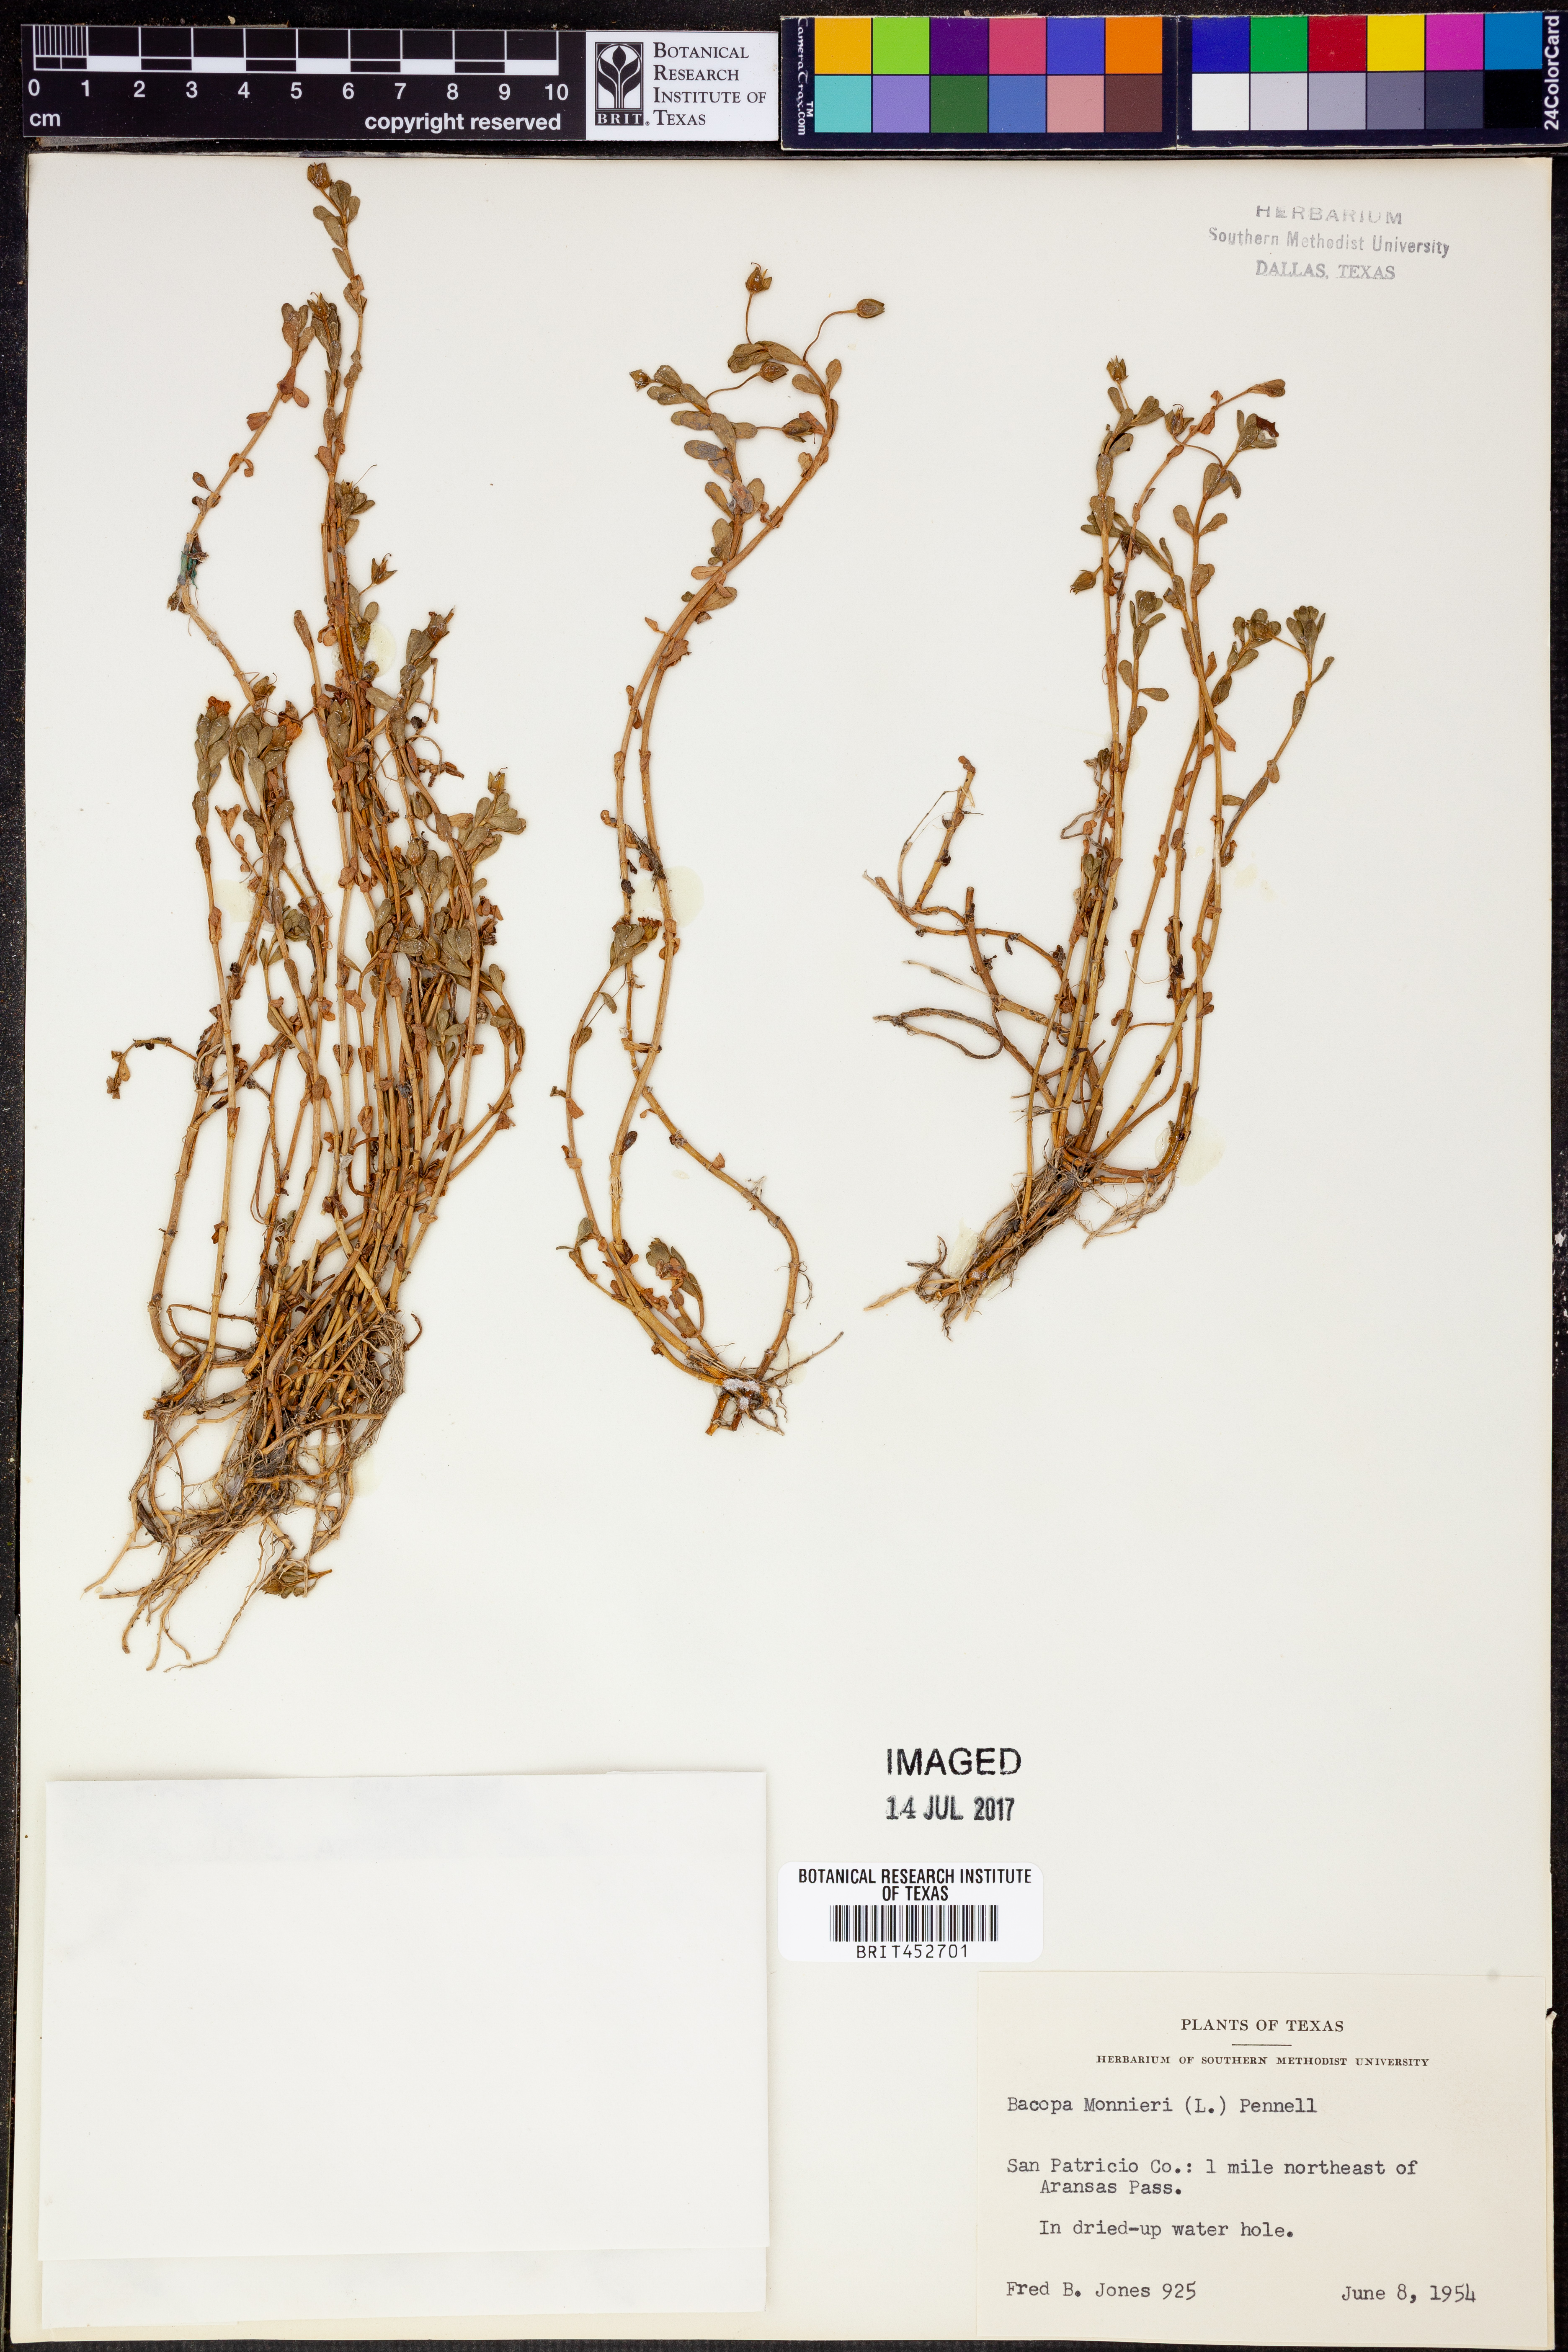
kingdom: Plantae
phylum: Tracheophyta
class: Magnoliopsida
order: Lamiales
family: Plantaginaceae
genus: Bacopa
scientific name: Bacopa monnieri
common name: Indian-pennywort
